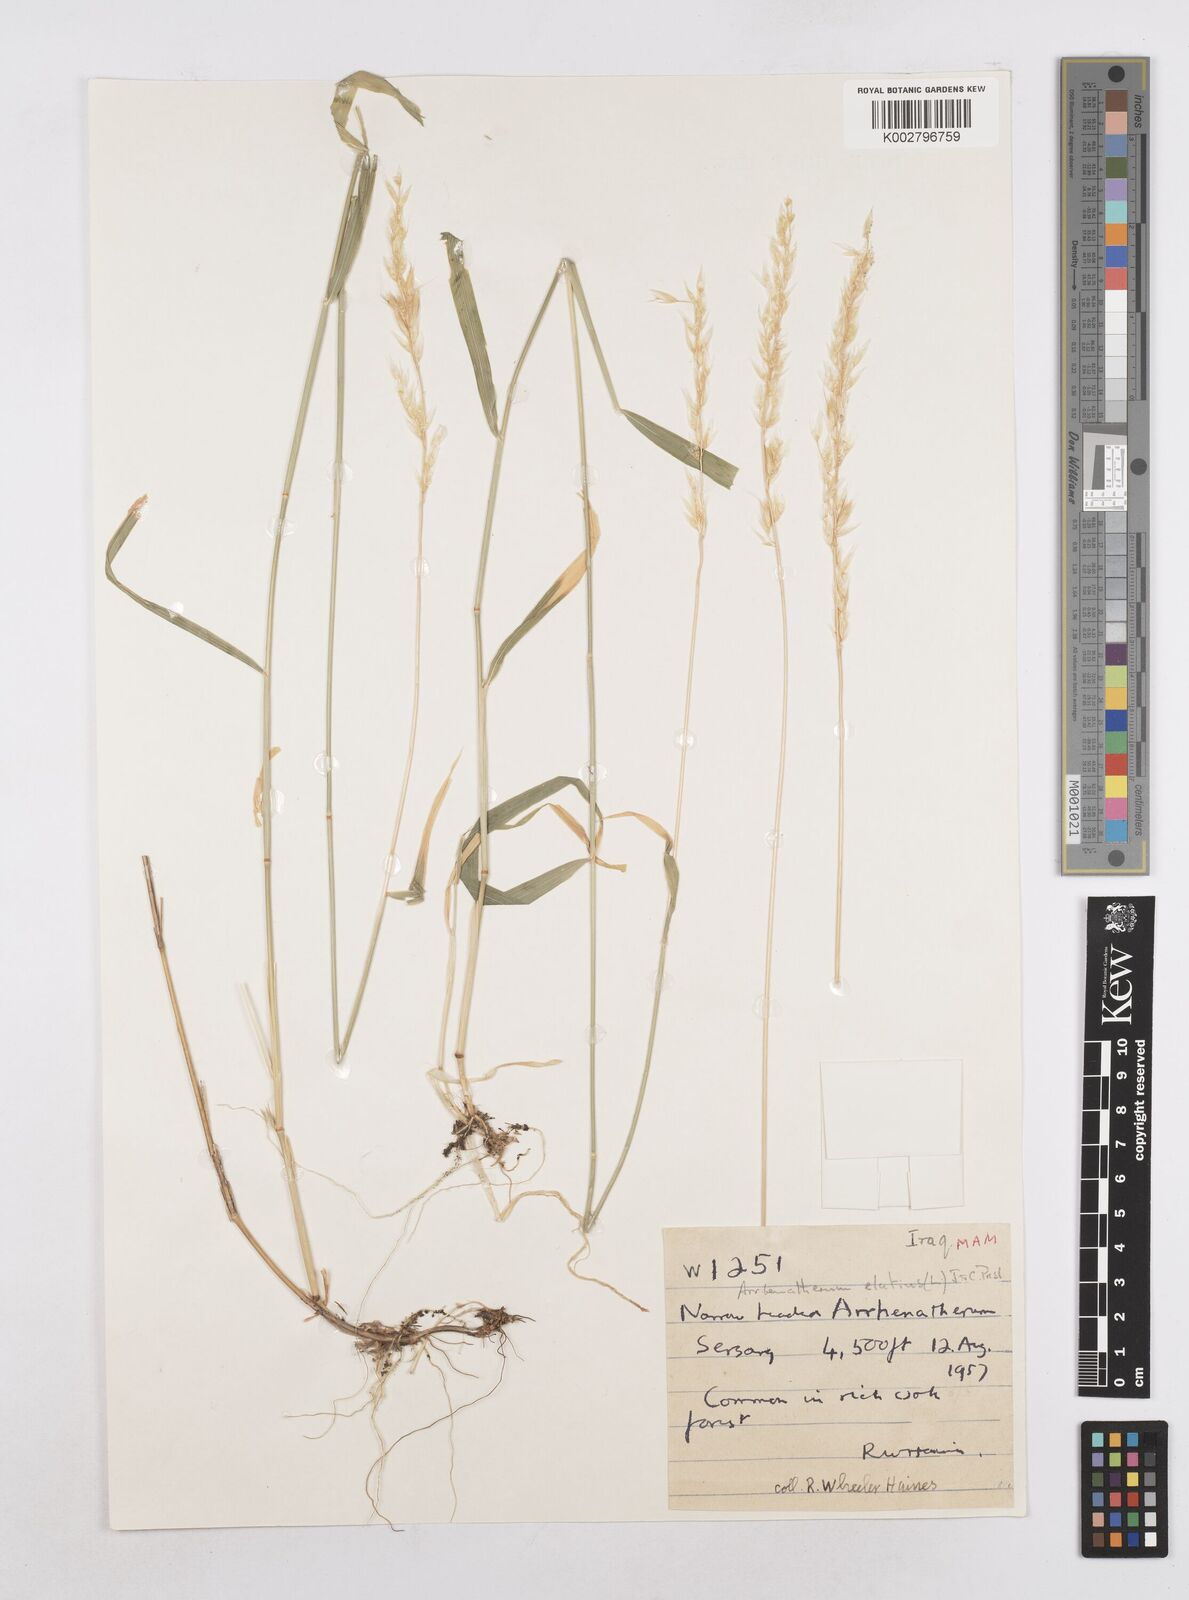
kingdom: Plantae
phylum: Tracheophyta
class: Liliopsida
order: Poales
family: Poaceae
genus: Arrhenatherum
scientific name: Arrhenatherum elatius
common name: Tall oatgrass
